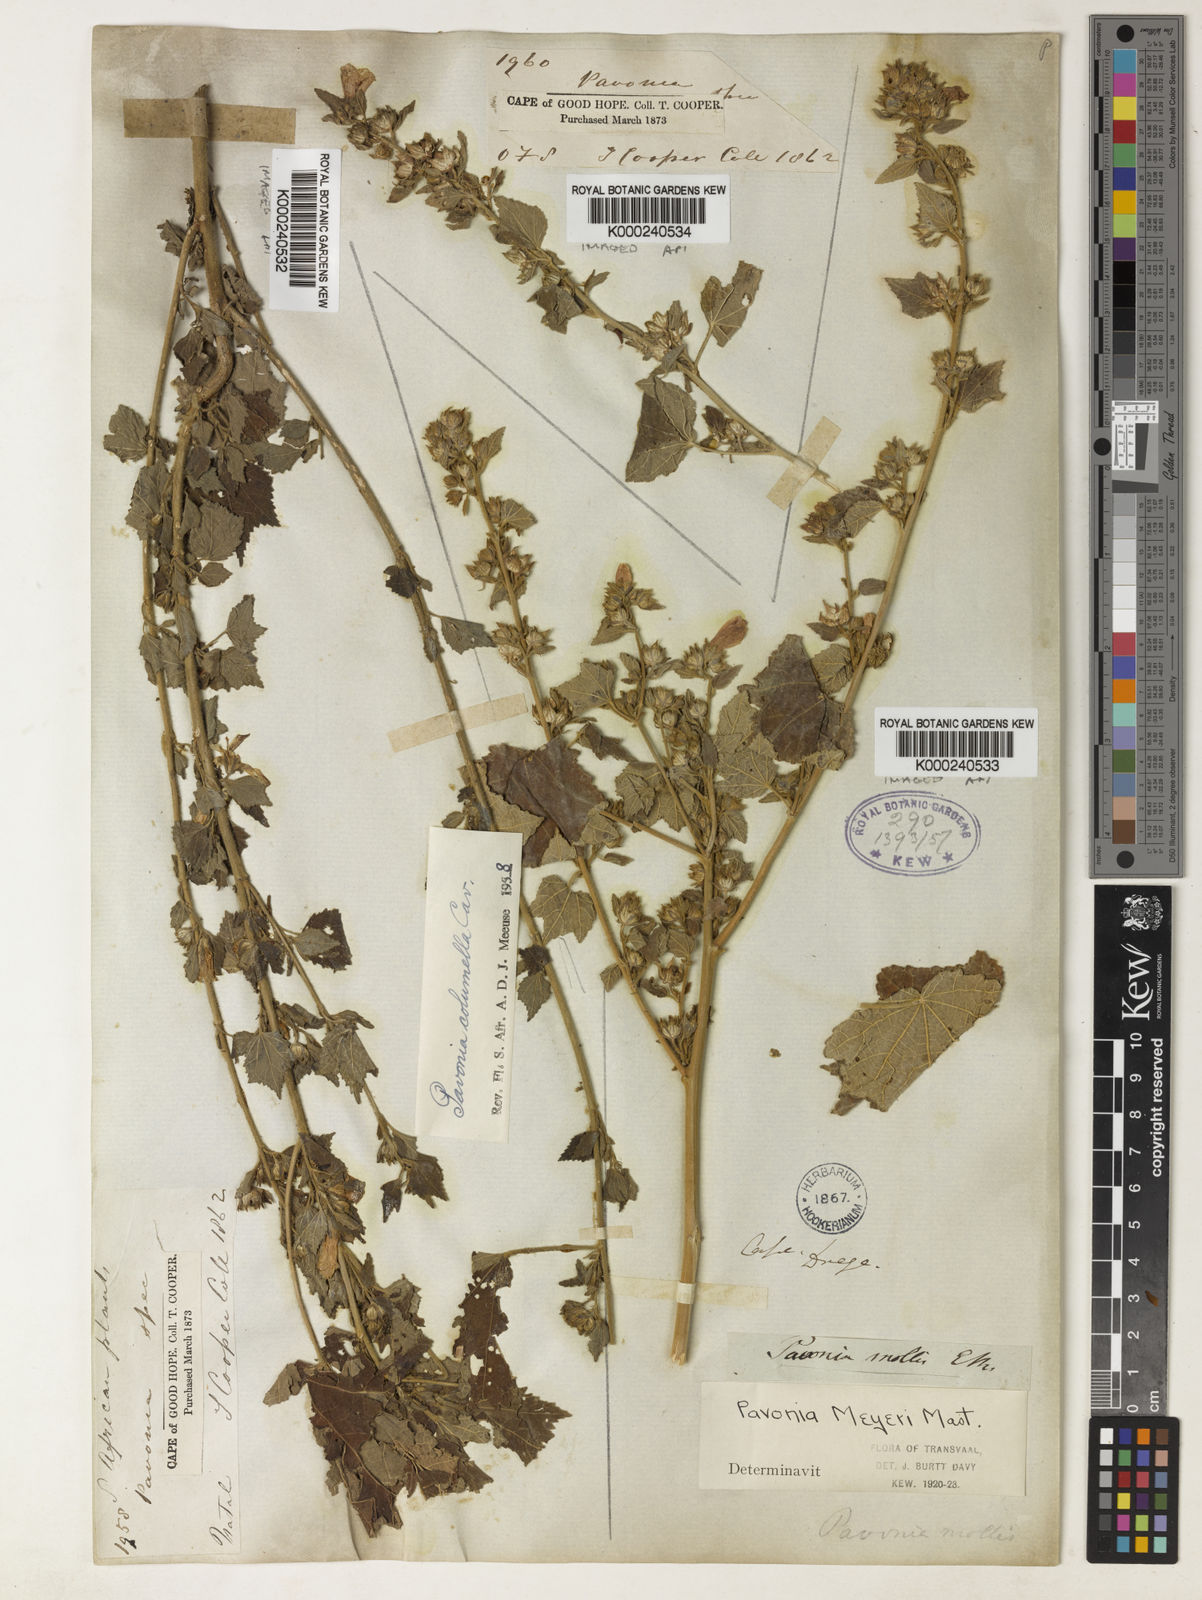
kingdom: Plantae
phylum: Tracheophyta
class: Magnoliopsida
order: Malvales
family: Malvaceae
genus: Pavonia
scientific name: Pavonia columella
